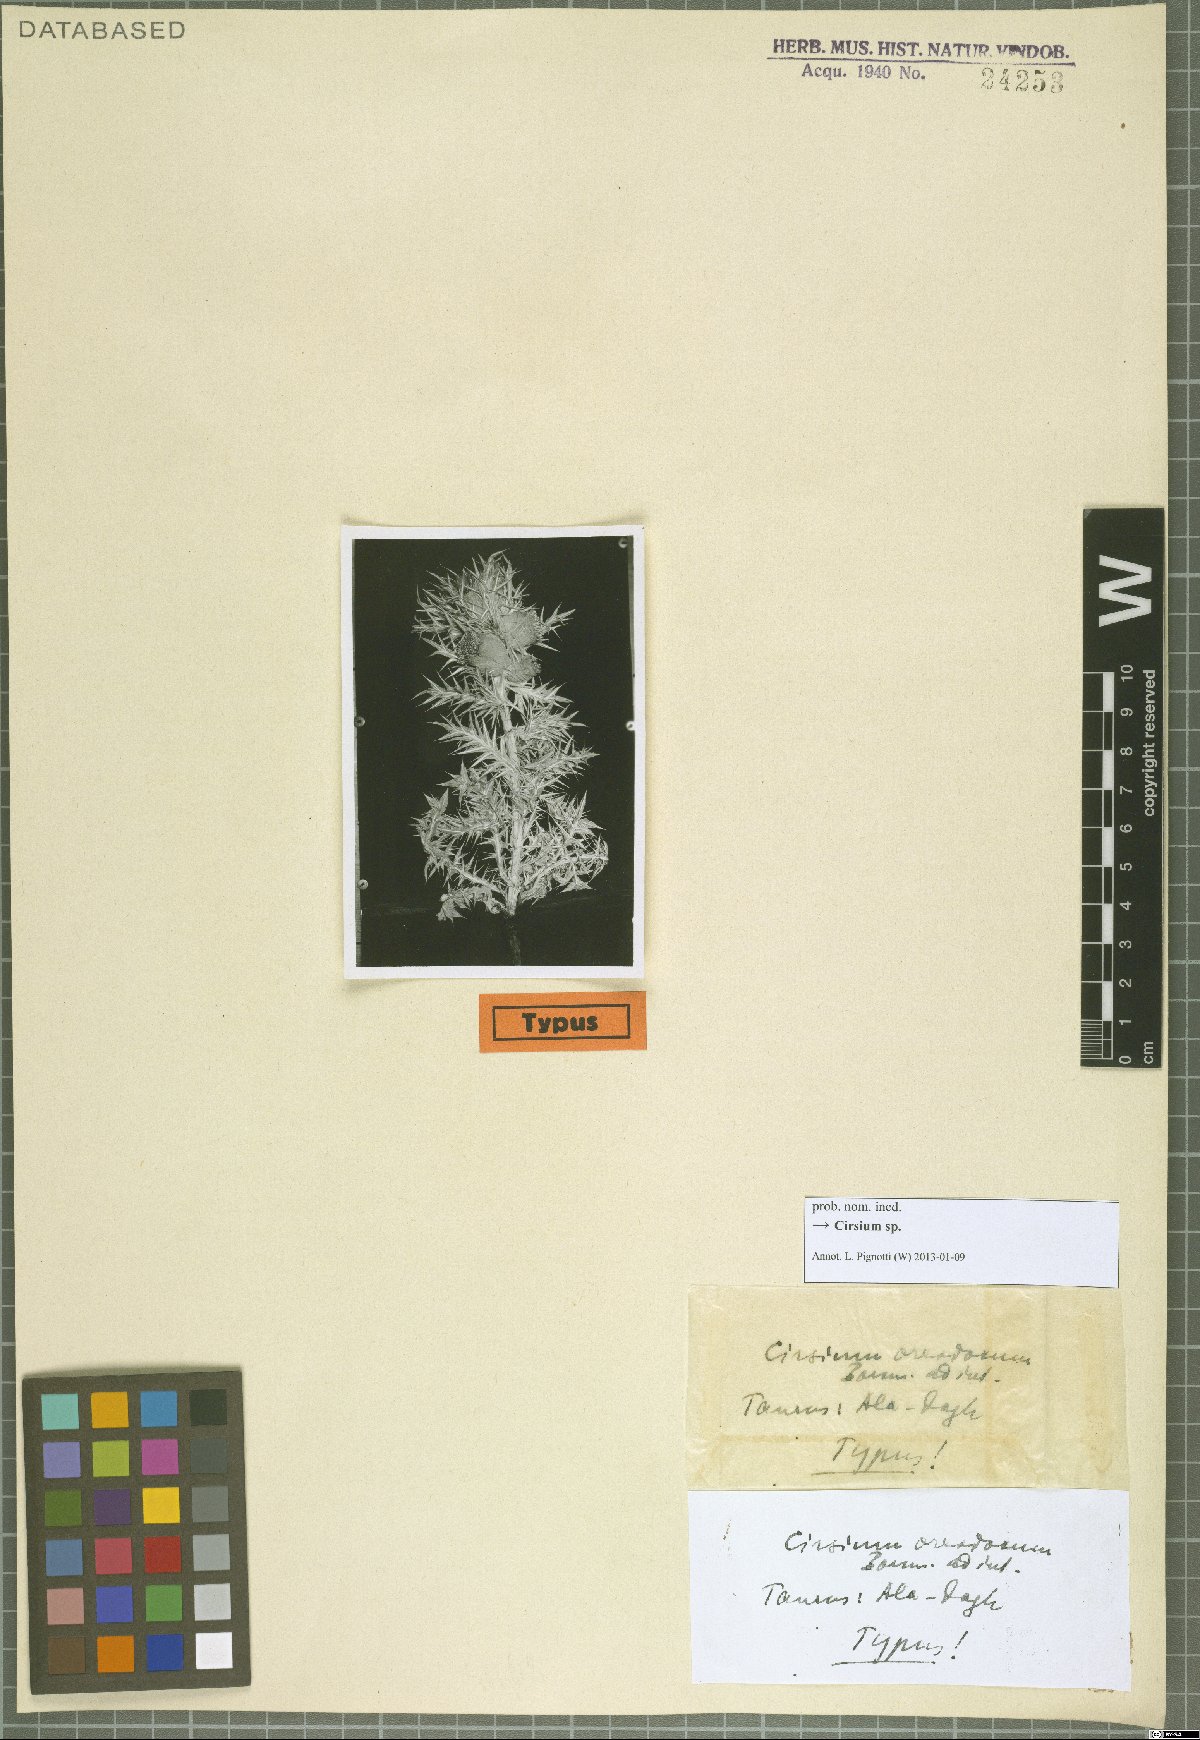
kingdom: Plantae
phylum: Tracheophyta
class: Magnoliopsida
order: Asterales
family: Asteraceae
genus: Cirsium
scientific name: Cirsium
